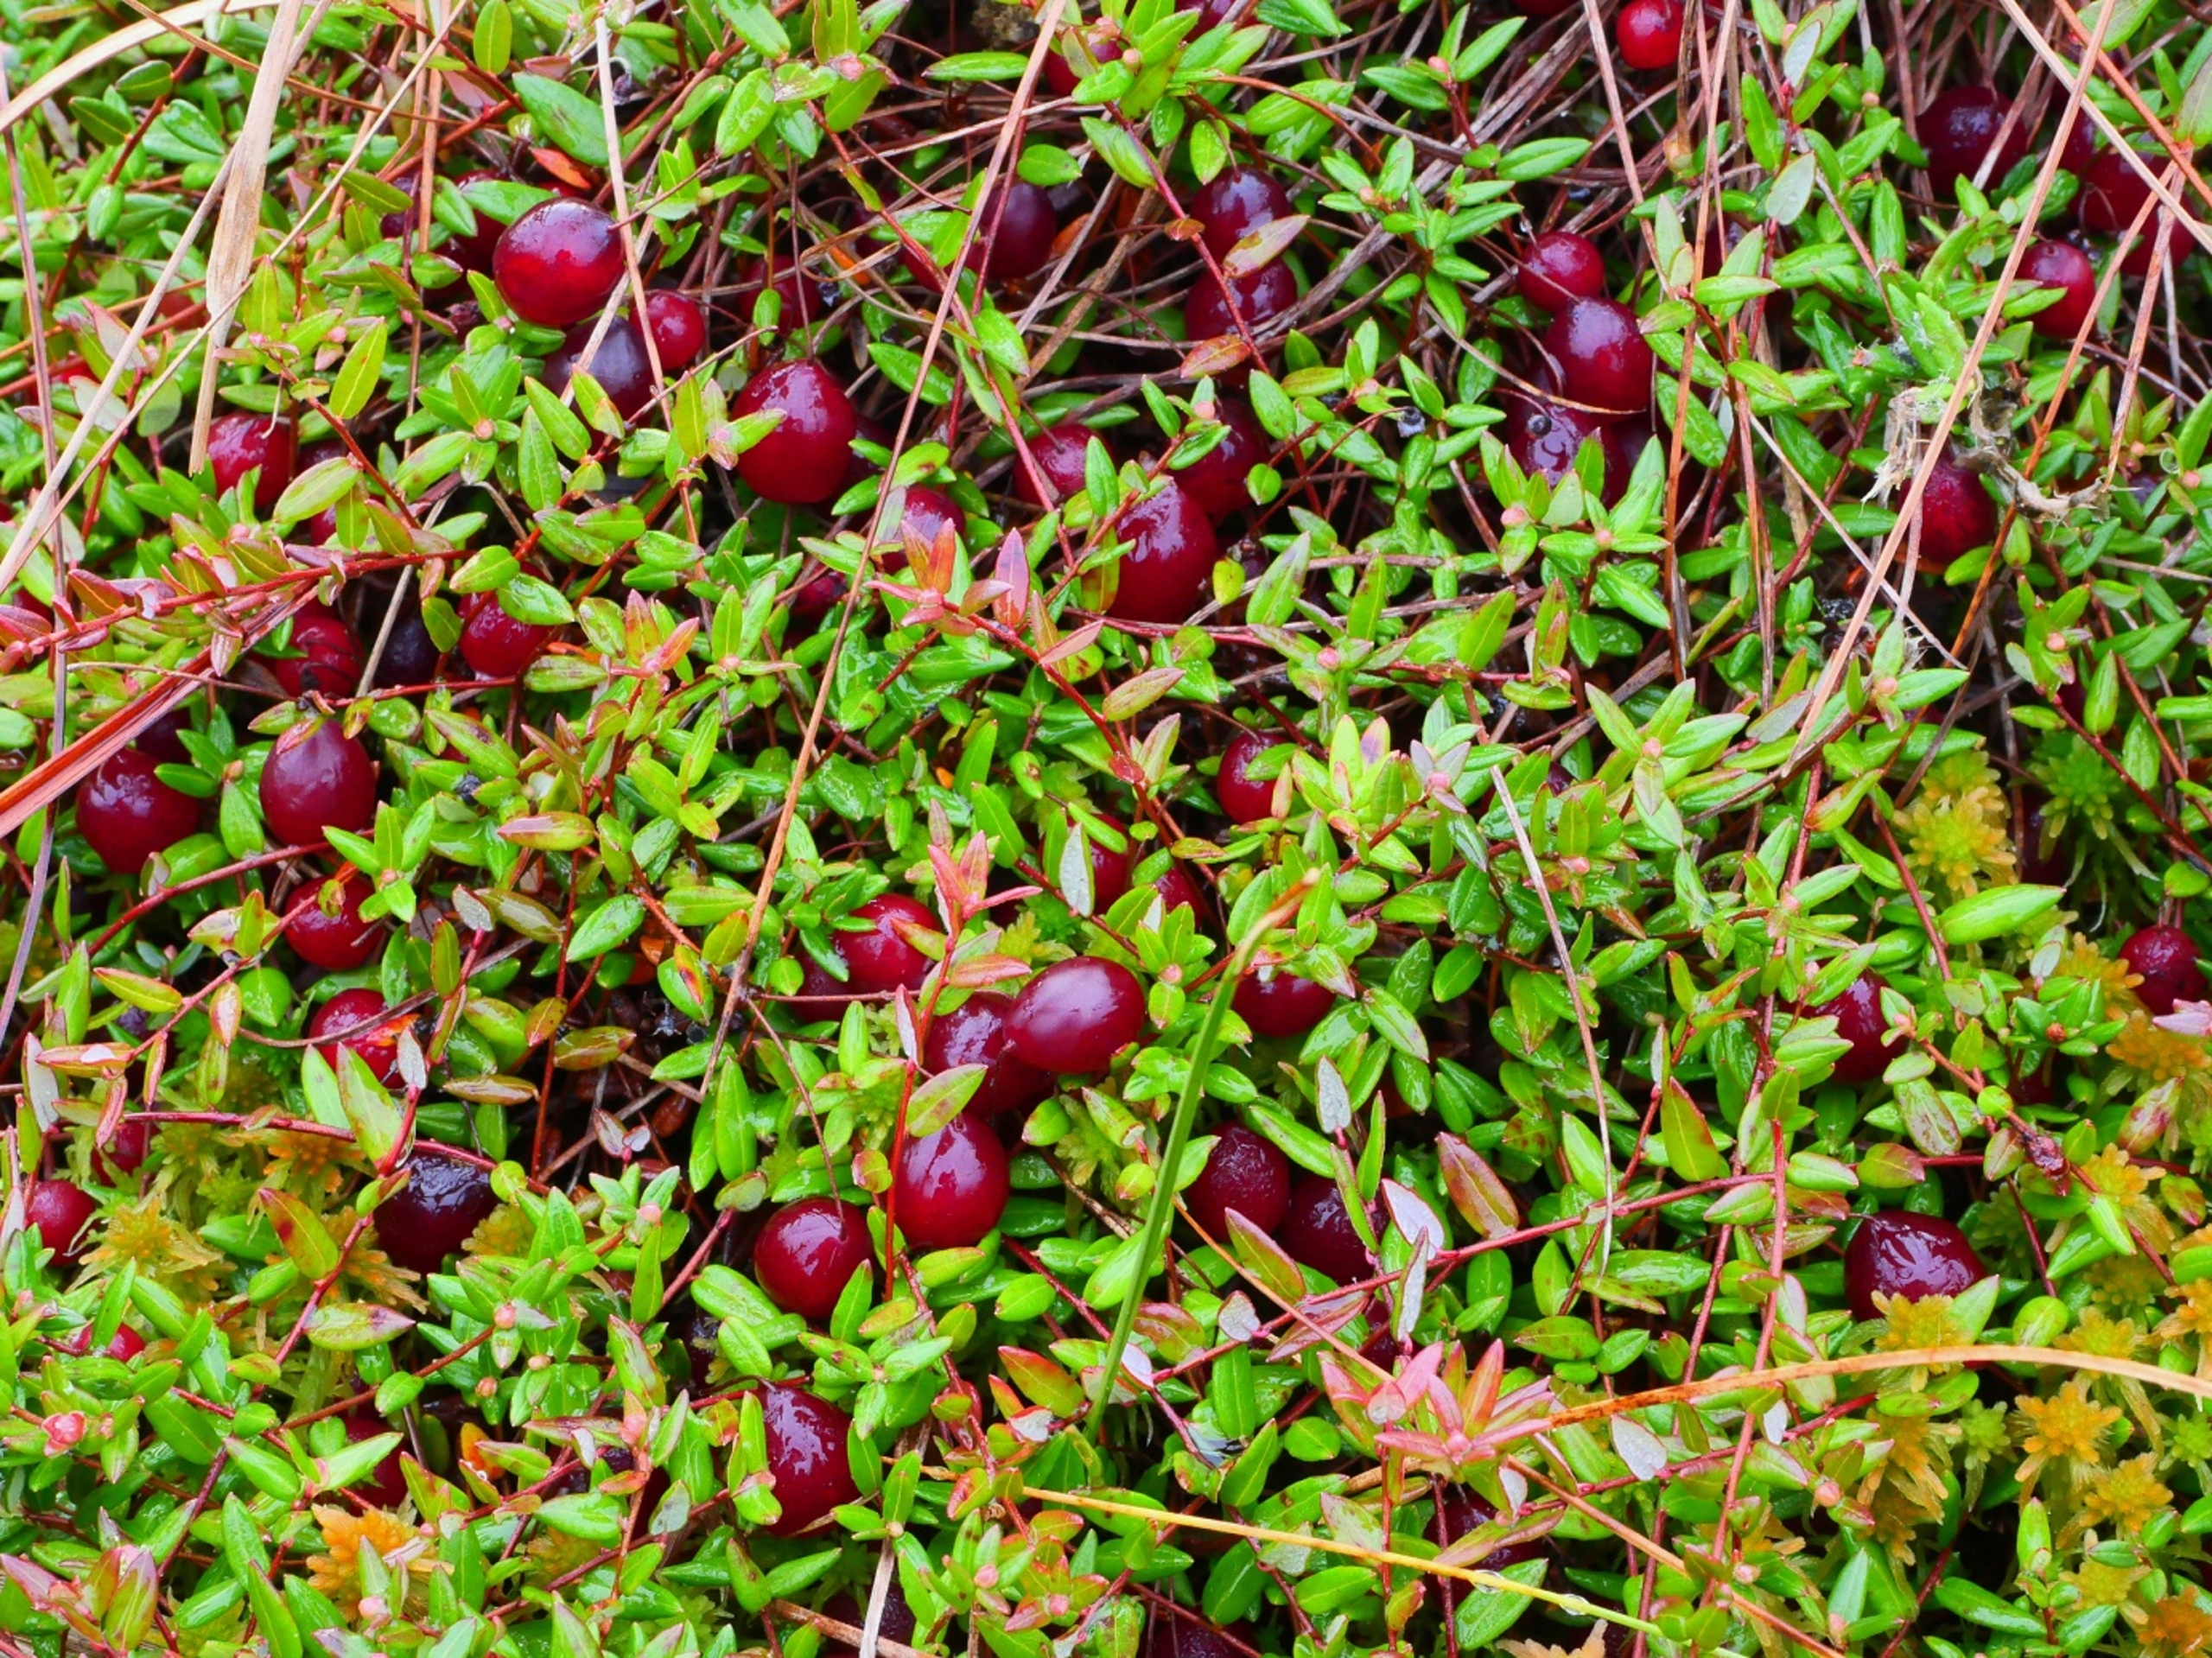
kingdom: Plantae
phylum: Tracheophyta
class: Magnoliopsida
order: Ericales
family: Ericaceae
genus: Vaccinium
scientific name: Vaccinium oxycoccos
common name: Tranebær
